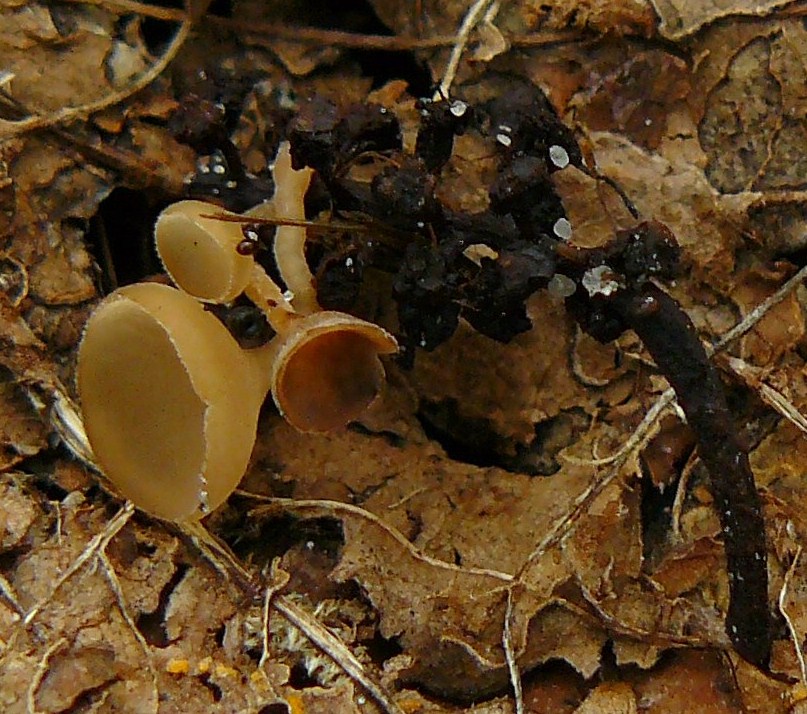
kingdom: Fungi
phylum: Ascomycota
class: Leotiomycetes
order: Helotiales
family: Sclerotiniaceae
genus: Ciboria
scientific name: Ciboria amentacea
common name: ellerakle-knoldskive
